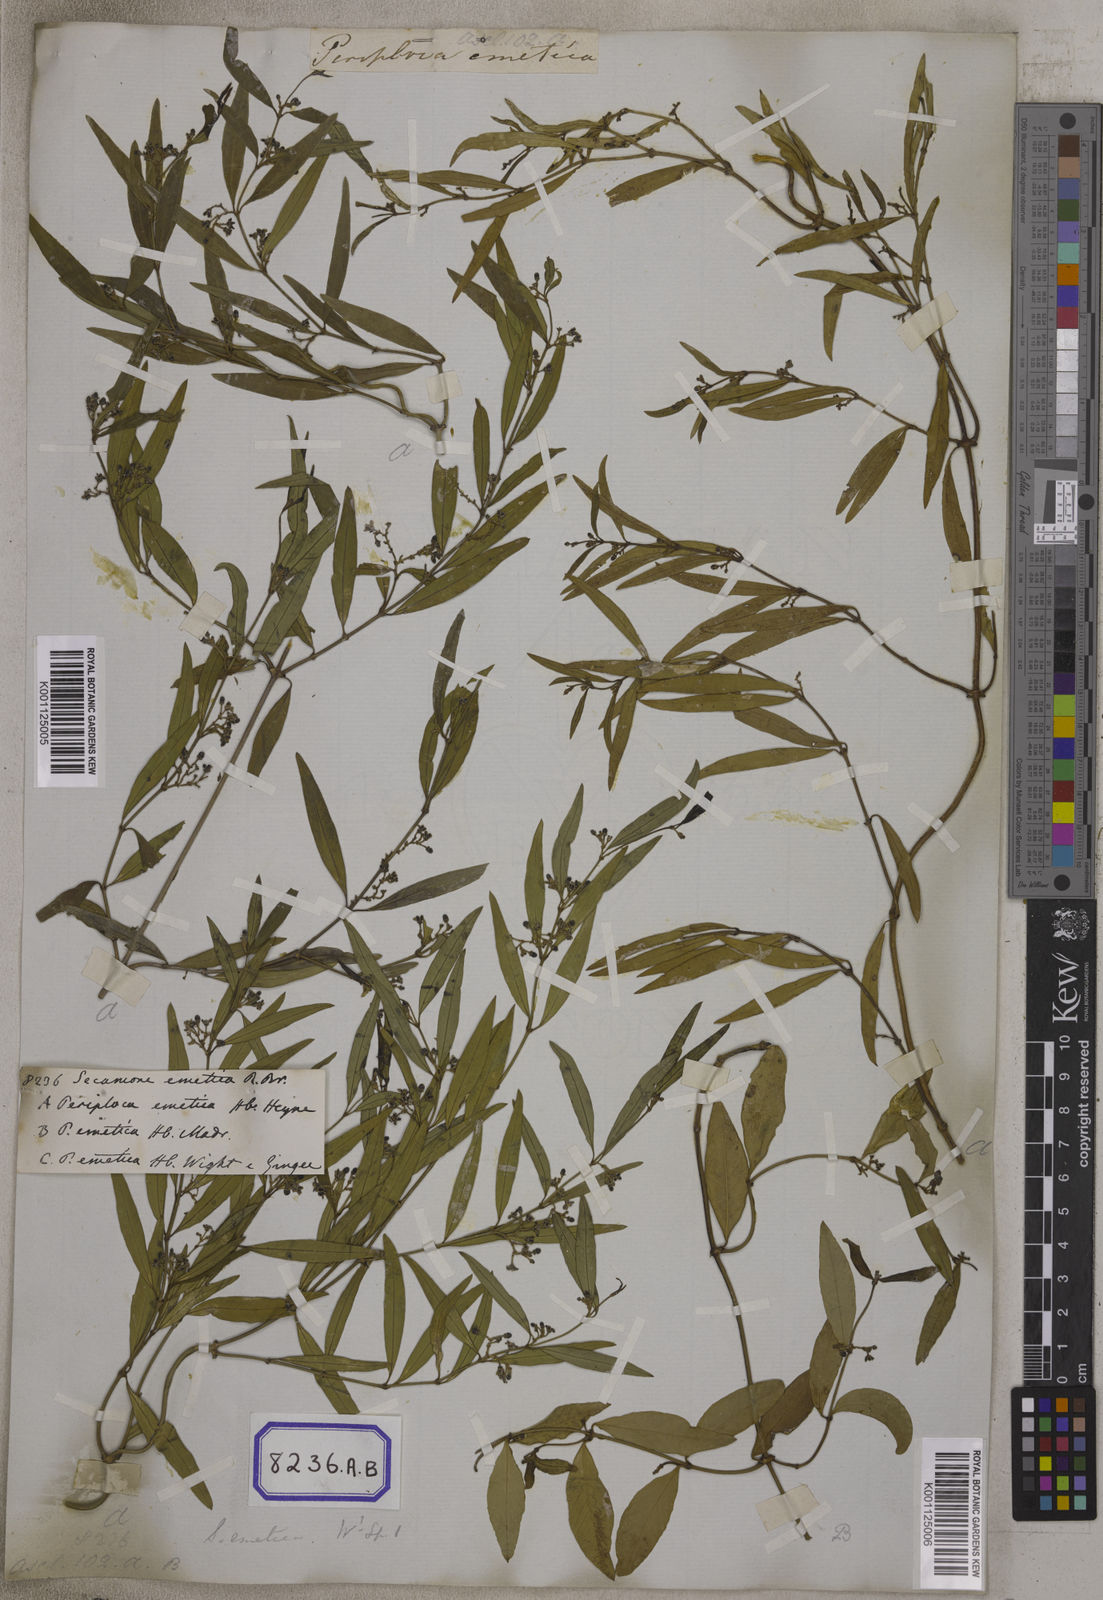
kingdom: Plantae
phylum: Tracheophyta
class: Magnoliopsida
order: Gentianales
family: Apocynaceae
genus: Secamone
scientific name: Secamone
